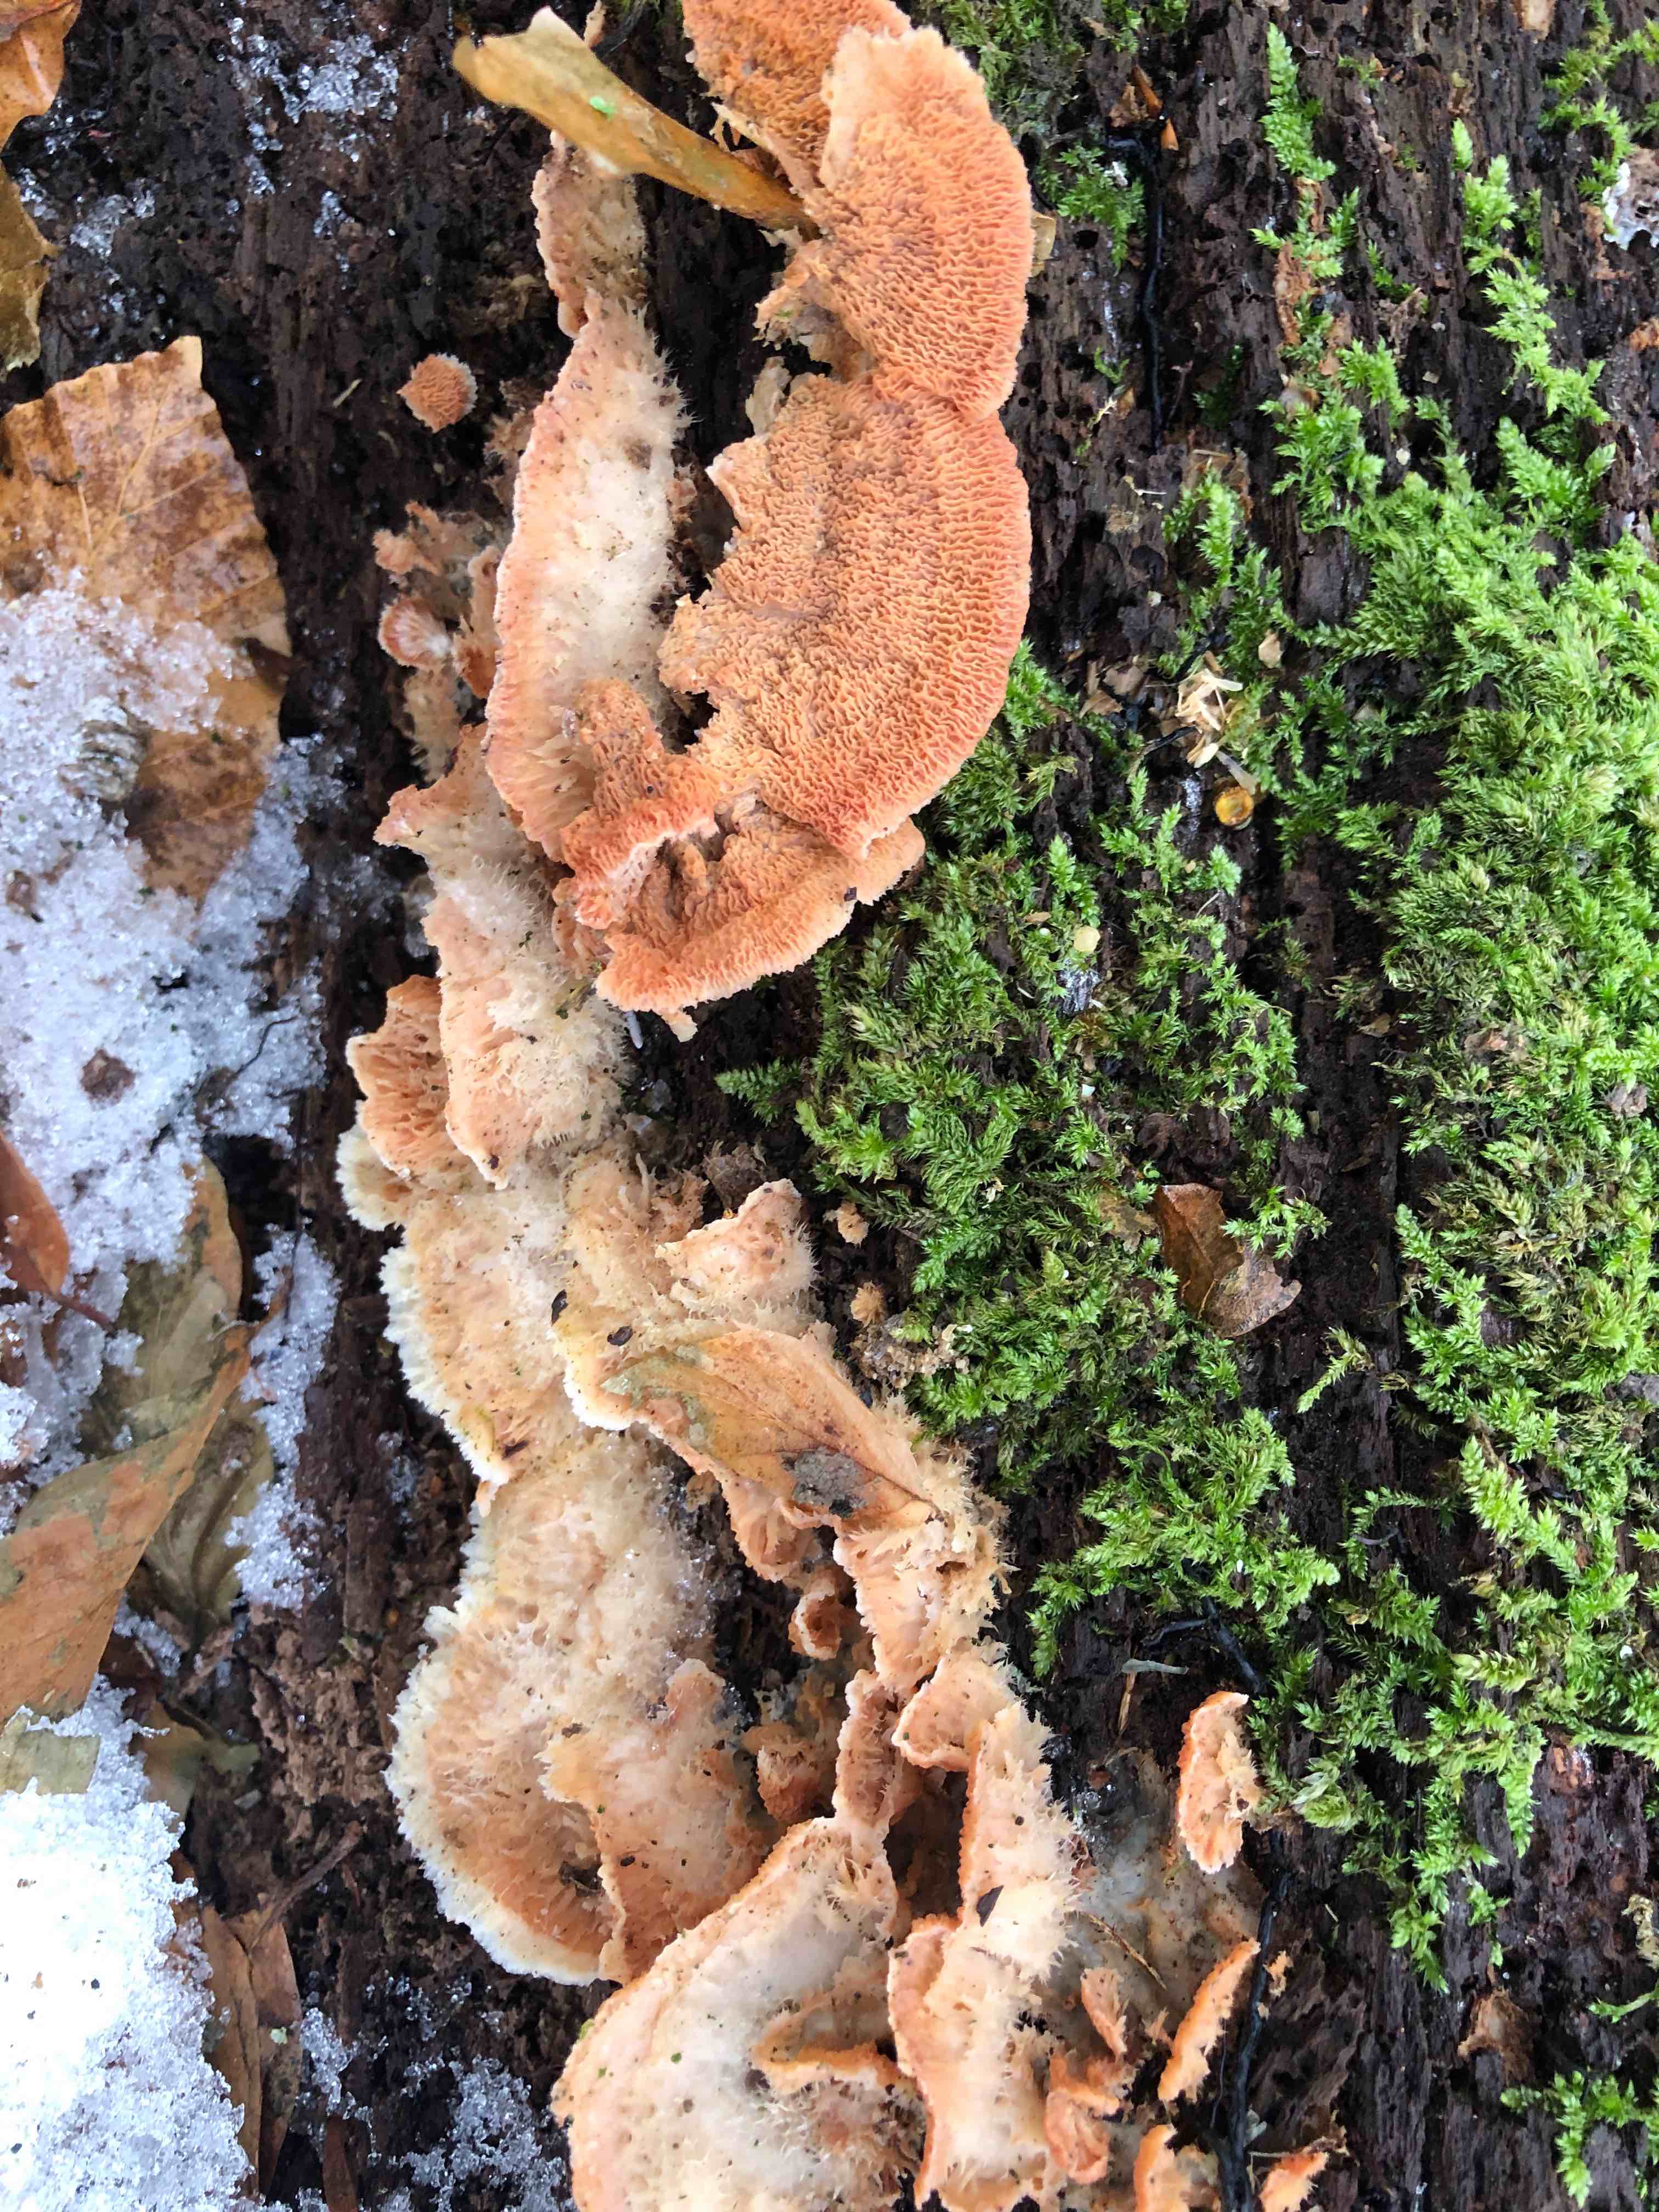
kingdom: Fungi
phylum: Basidiomycota
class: Agaricomycetes
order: Polyporales
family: Meruliaceae
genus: Phlebia
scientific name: Phlebia tremellosa
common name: bævrende åresvamp
